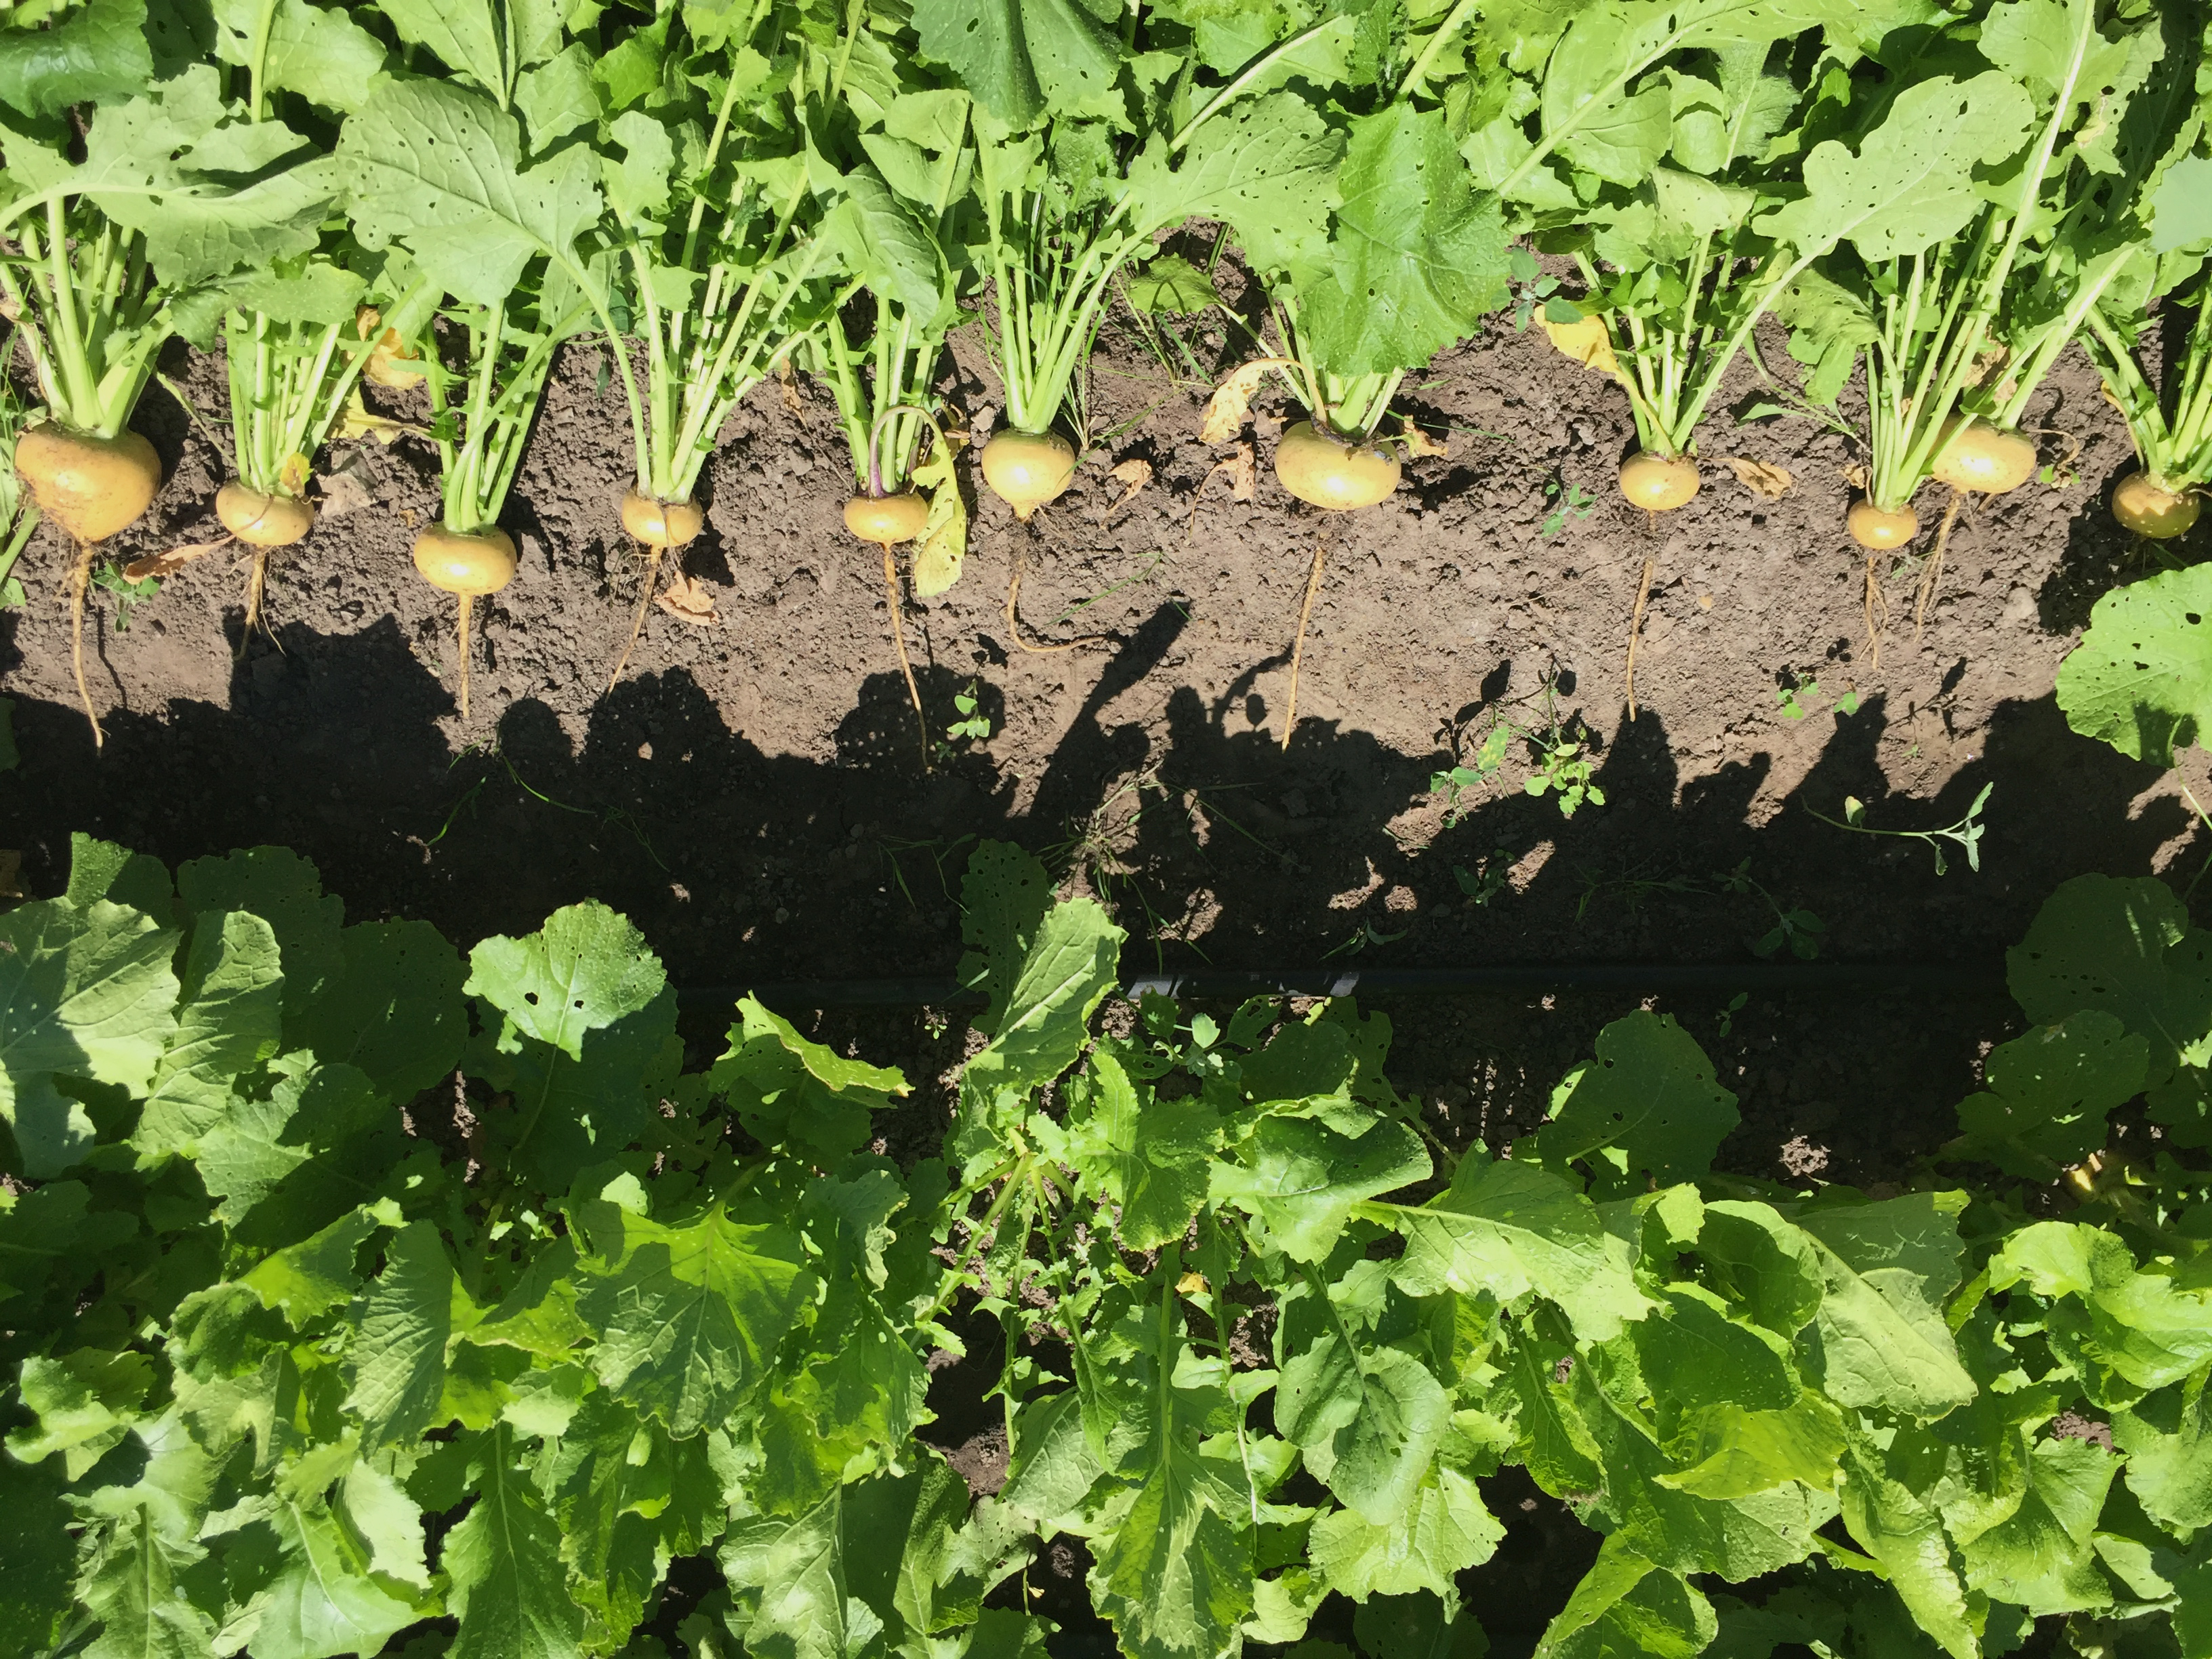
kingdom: Plantae
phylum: Tracheophyta
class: Magnoliopsida
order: Brassicales
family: Brassicaceae
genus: Brassica
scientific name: Brassica rapa
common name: Field mustard
